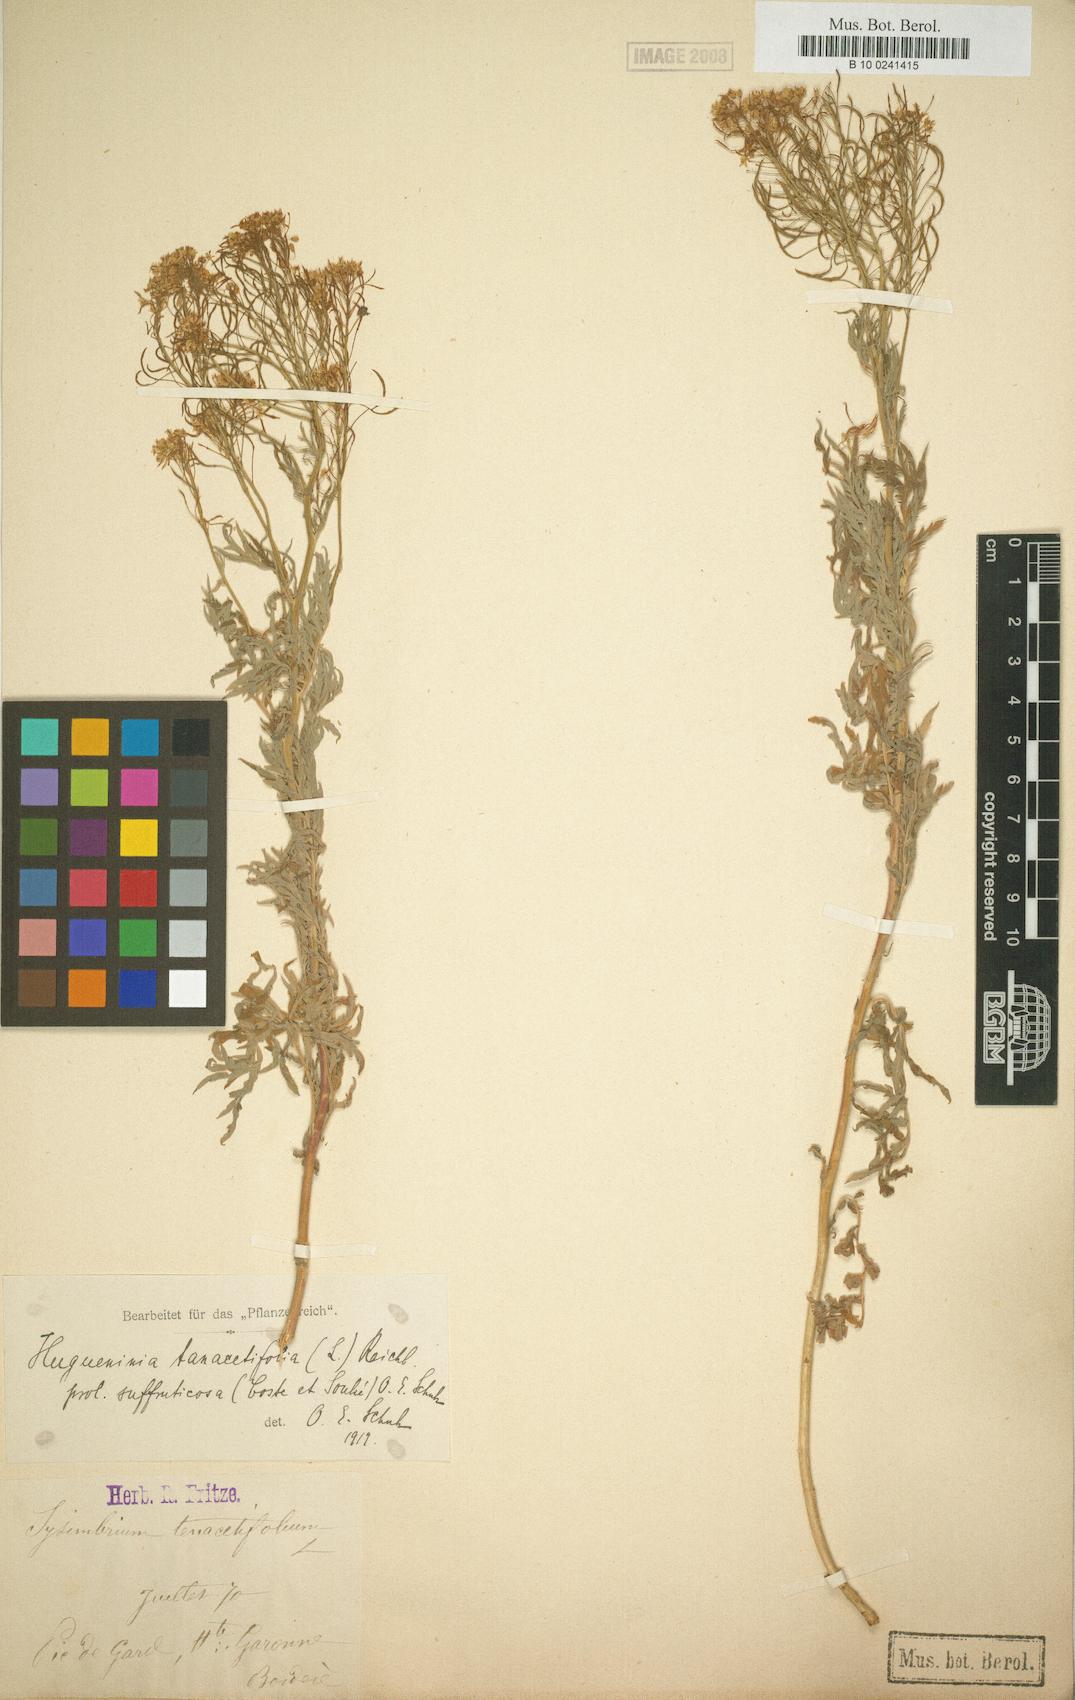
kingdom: Plantae
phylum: Tracheophyta
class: Magnoliopsida
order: Brassicales
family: Brassicaceae
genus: Descurainia
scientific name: Descurainia tanacetifolia
